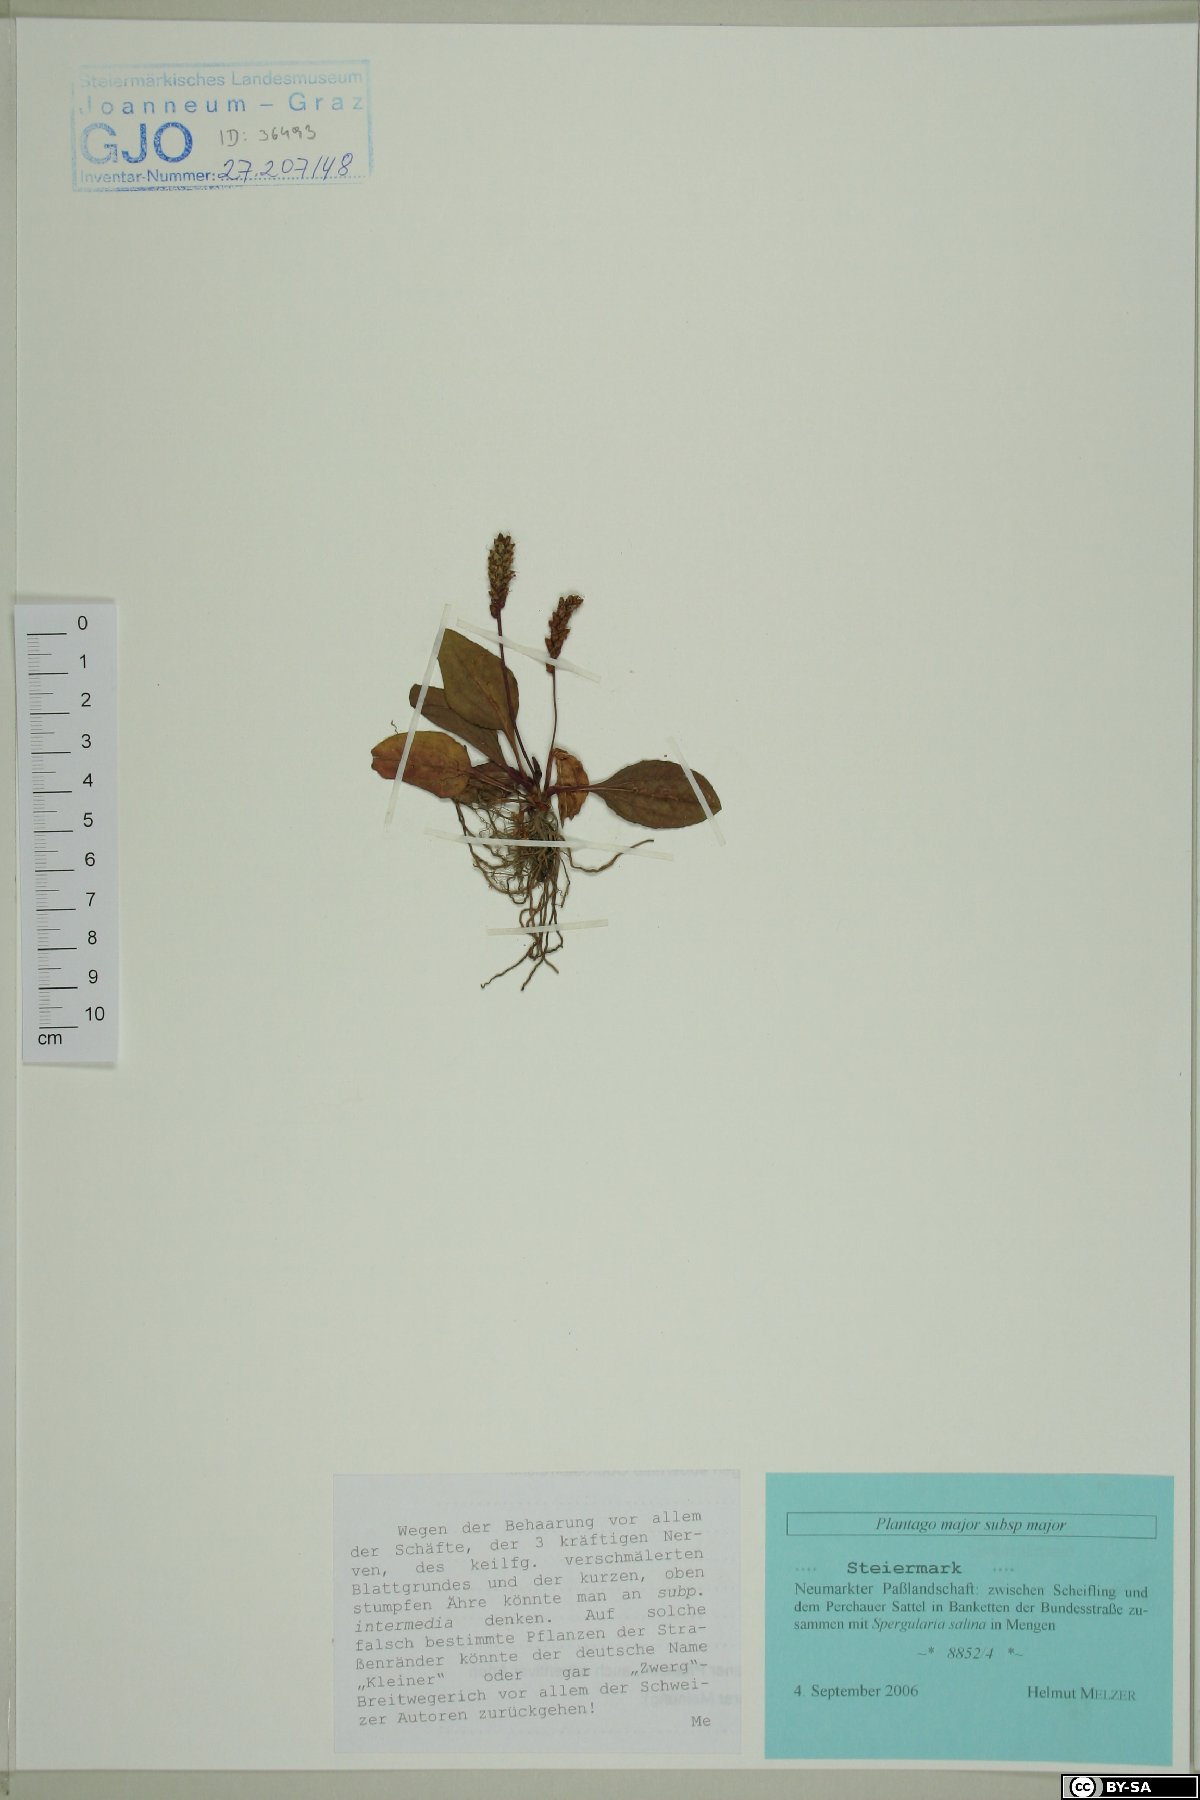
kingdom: Plantae
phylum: Tracheophyta
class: Magnoliopsida
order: Lamiales
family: Plantaginaceae
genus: Plantago
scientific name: Plantago major
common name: Common plantain
